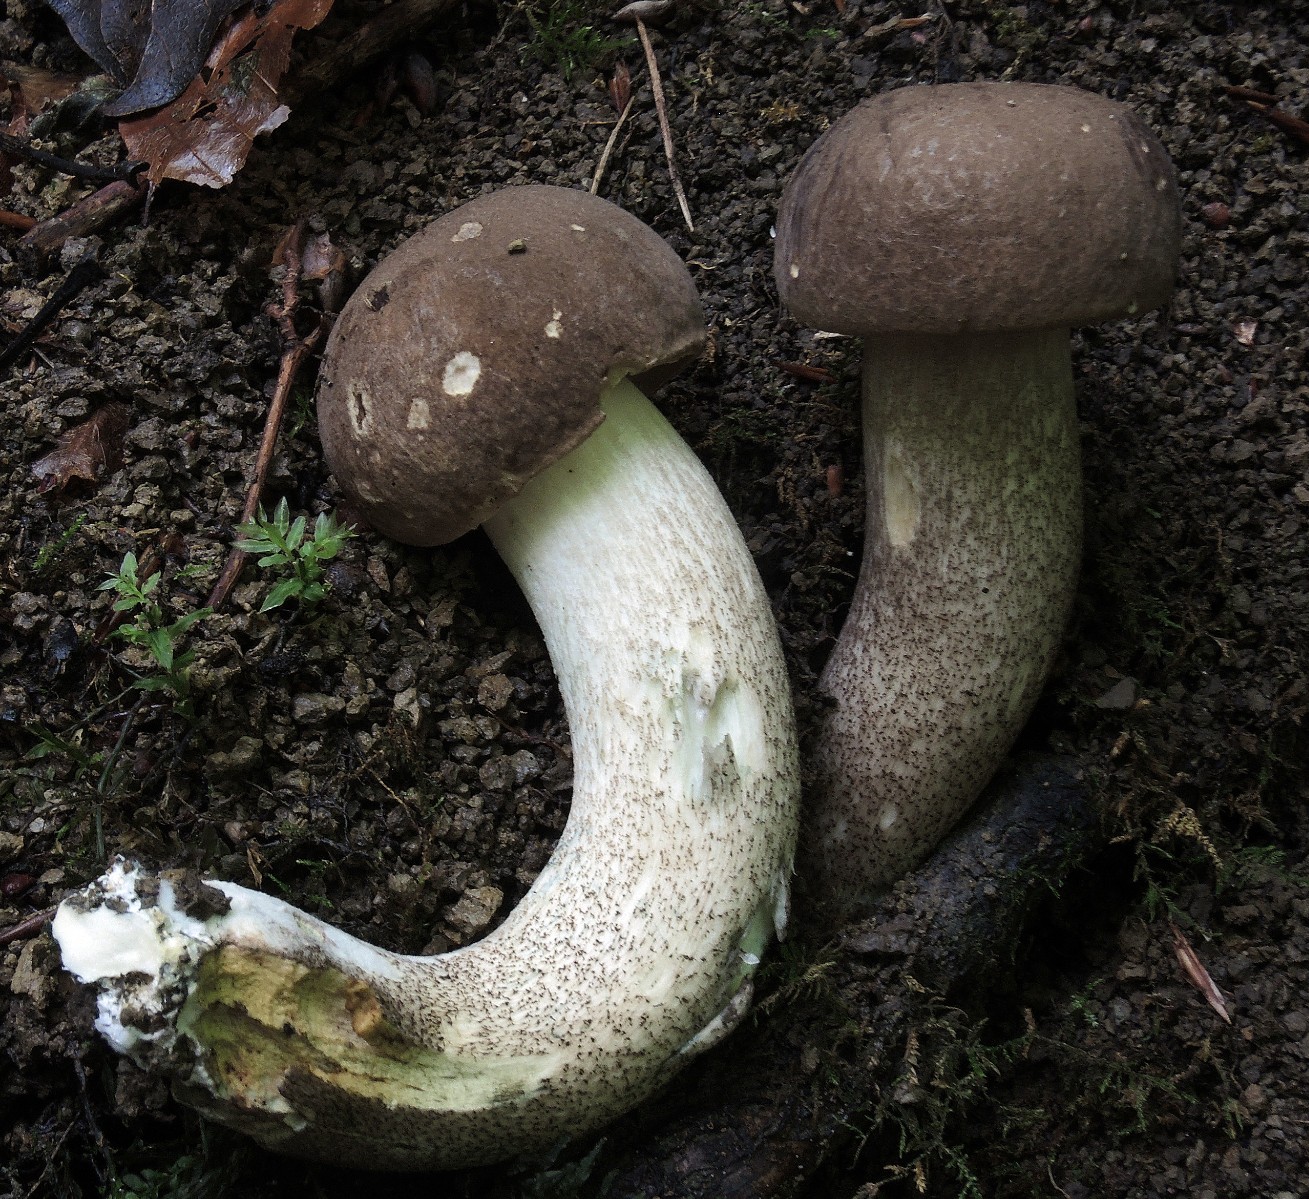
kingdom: Fungi
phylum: Basidiomycota
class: Agaricomycetes
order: Boletales
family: Boletaceae
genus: Leccinum
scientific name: Leccinum duriusculum
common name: poppel-skælrørhat
